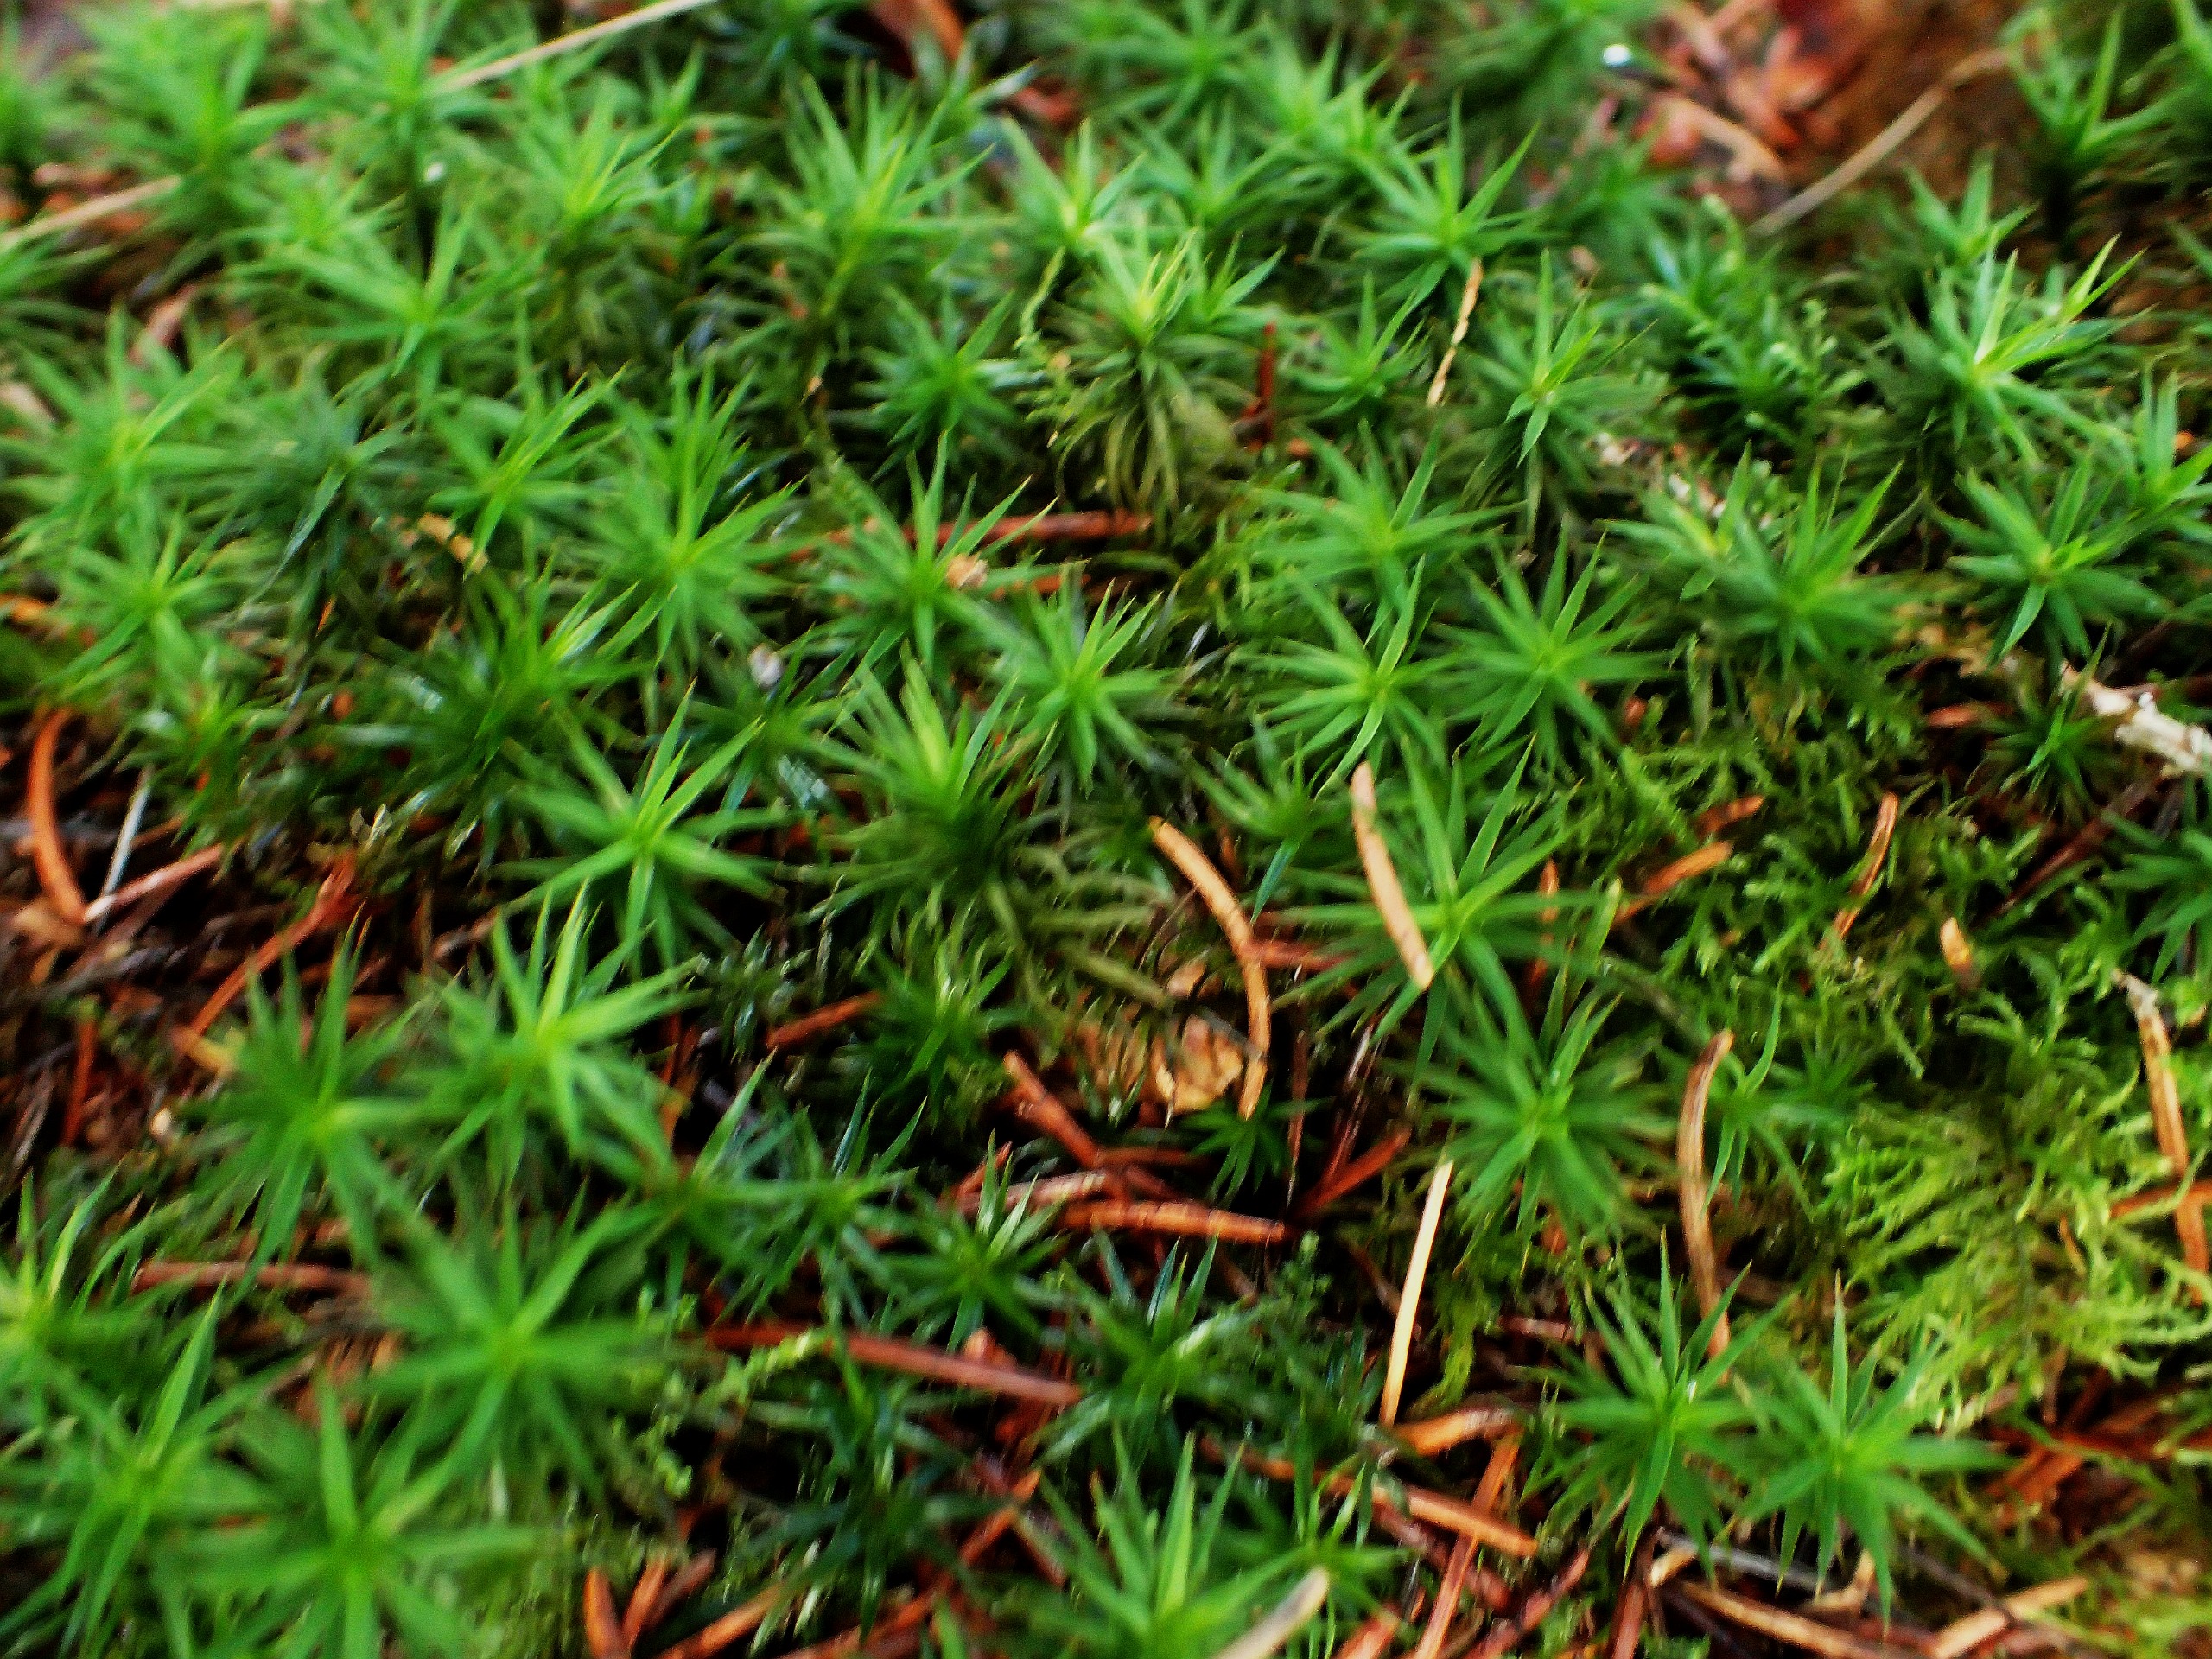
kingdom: Plantae
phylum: Bryophyta
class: Polytrichopsida
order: Polytrichales
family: Polytrichaceae
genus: Polytrichum
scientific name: Polytrichum formosum
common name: Skov-jomfruhår
